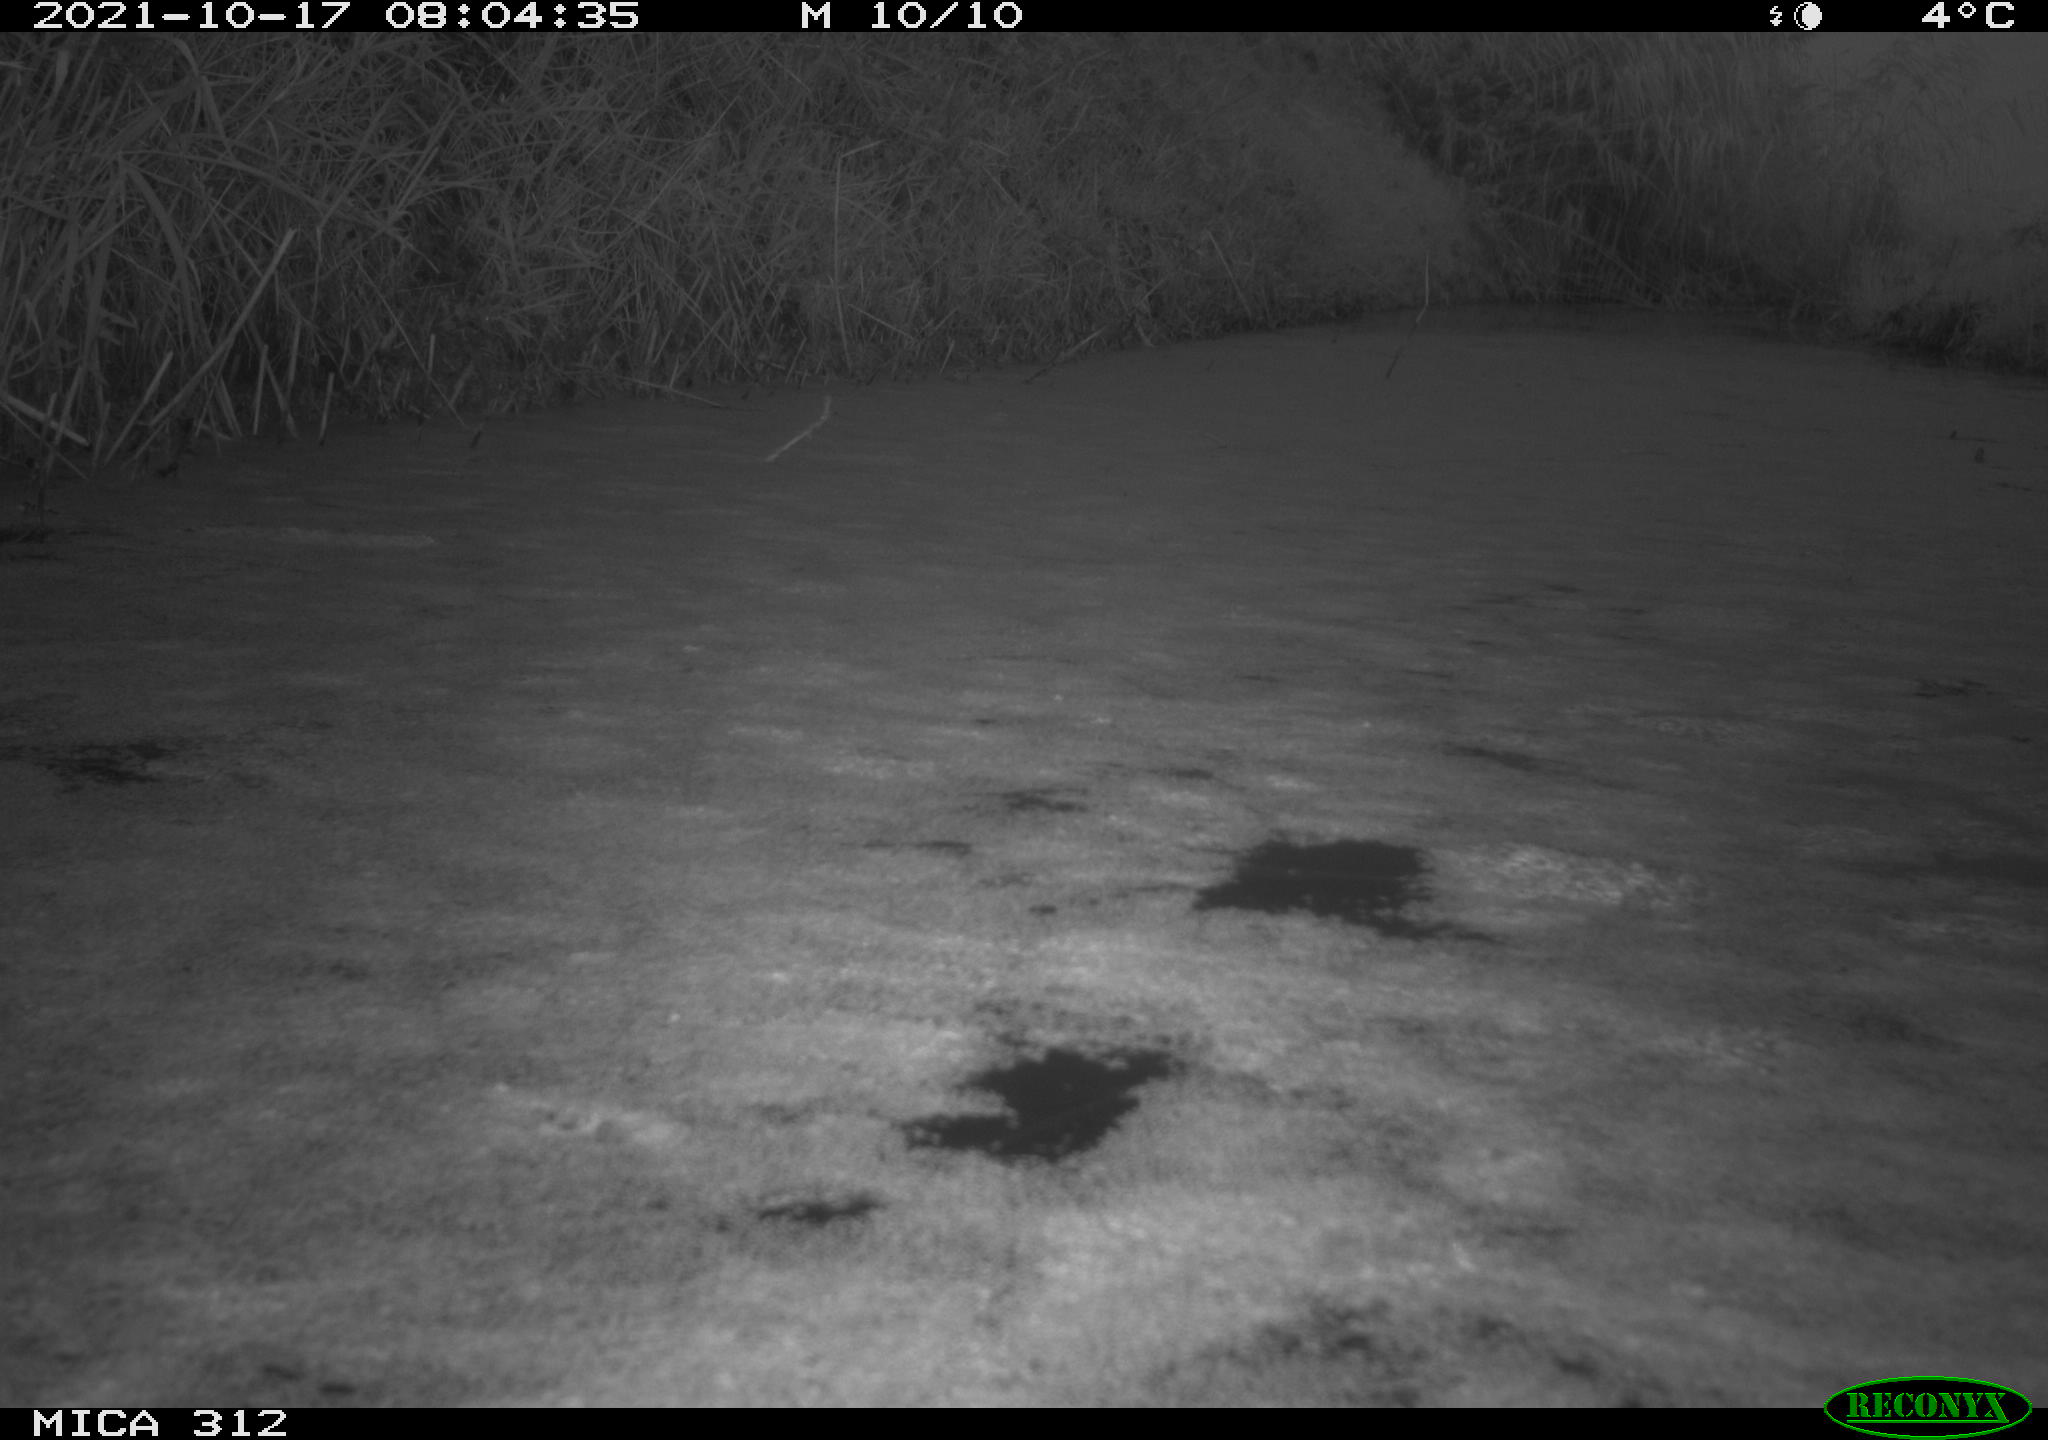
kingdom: Animalia
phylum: Chordata
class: Aves
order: Gruiformes
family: Rallidae
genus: Gallinula
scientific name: Gallinula chloropus
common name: Common moorhen
